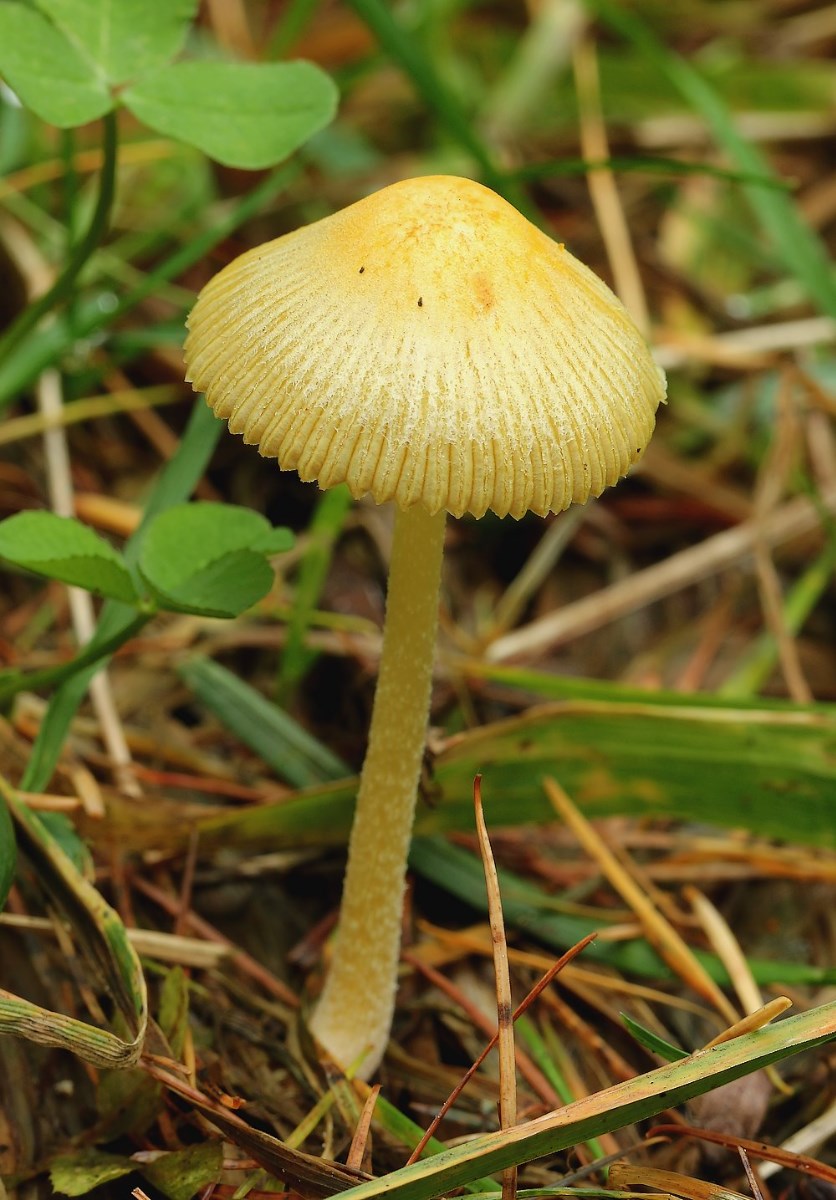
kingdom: Fungi
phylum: Basidiomycota
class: Agaricomycetes
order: Agaricales
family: Bolbitiaceae
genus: Bolbitius
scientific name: Bolbitius titubans
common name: almindelig gulhat
